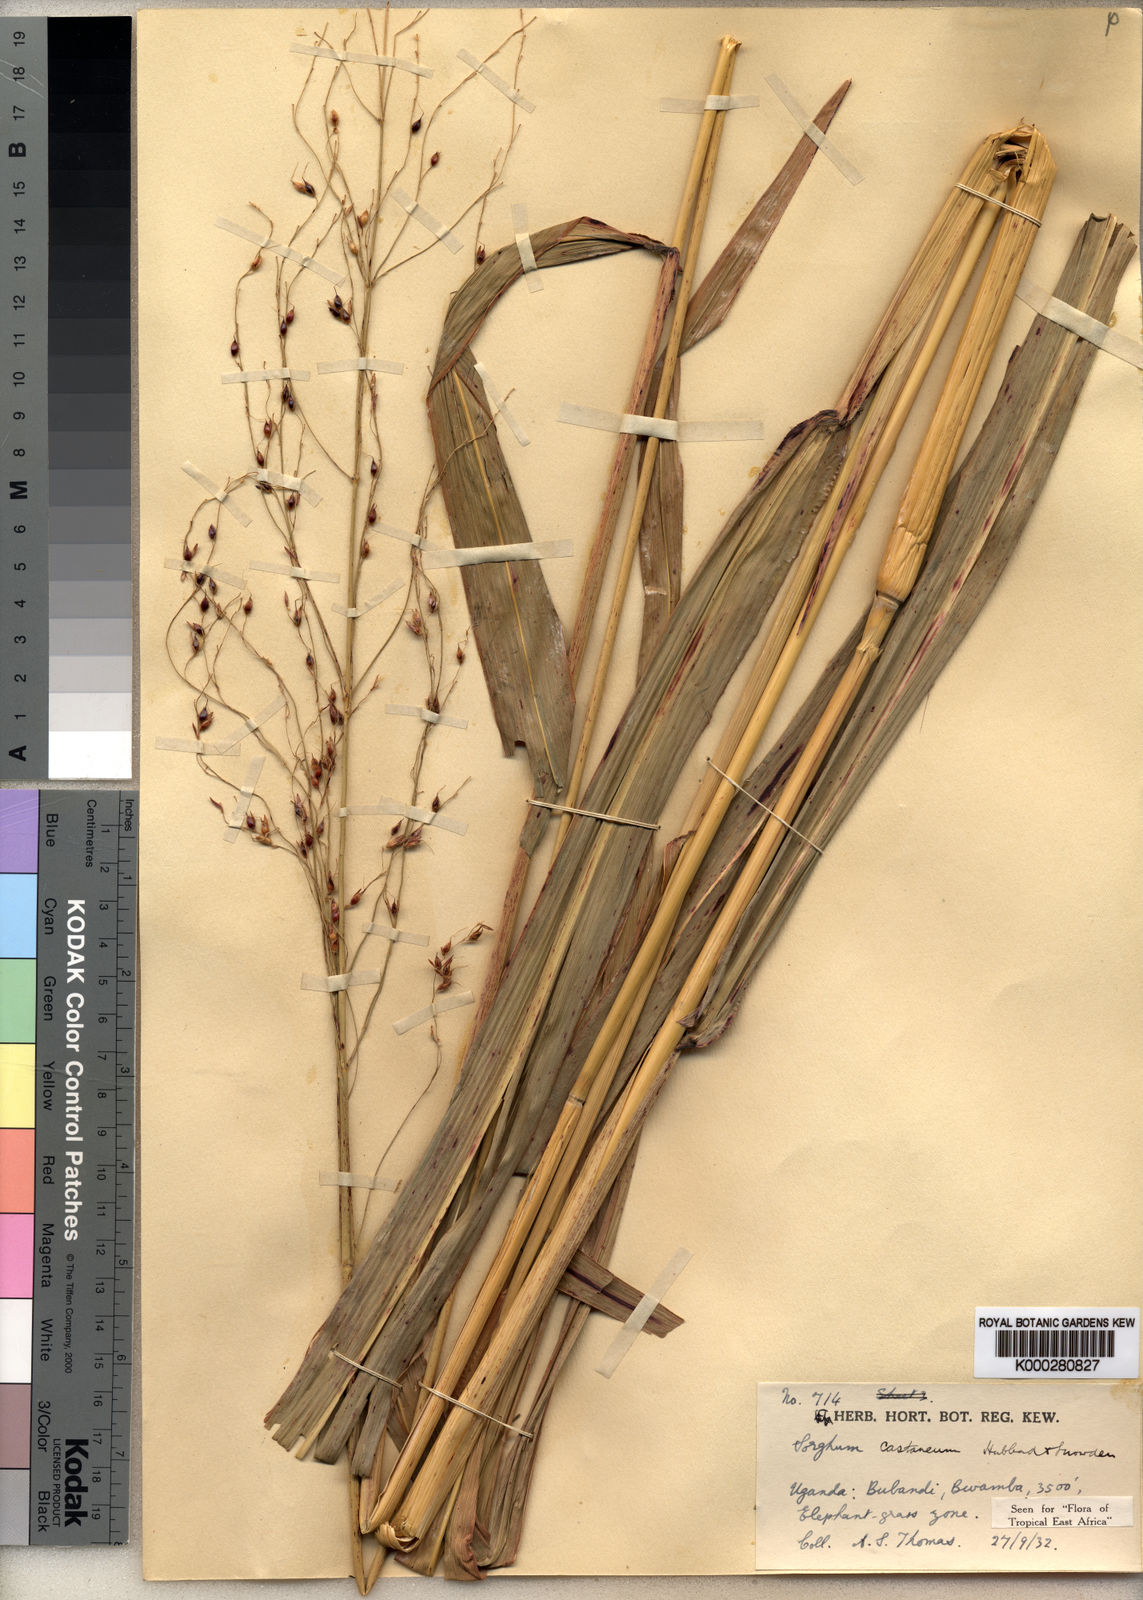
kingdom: Plantae
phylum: Tracheophyta
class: Liliopsida
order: Poales
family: Poaceae
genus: Sorghum
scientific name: Sorghum arundinaceum
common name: Sorghum
